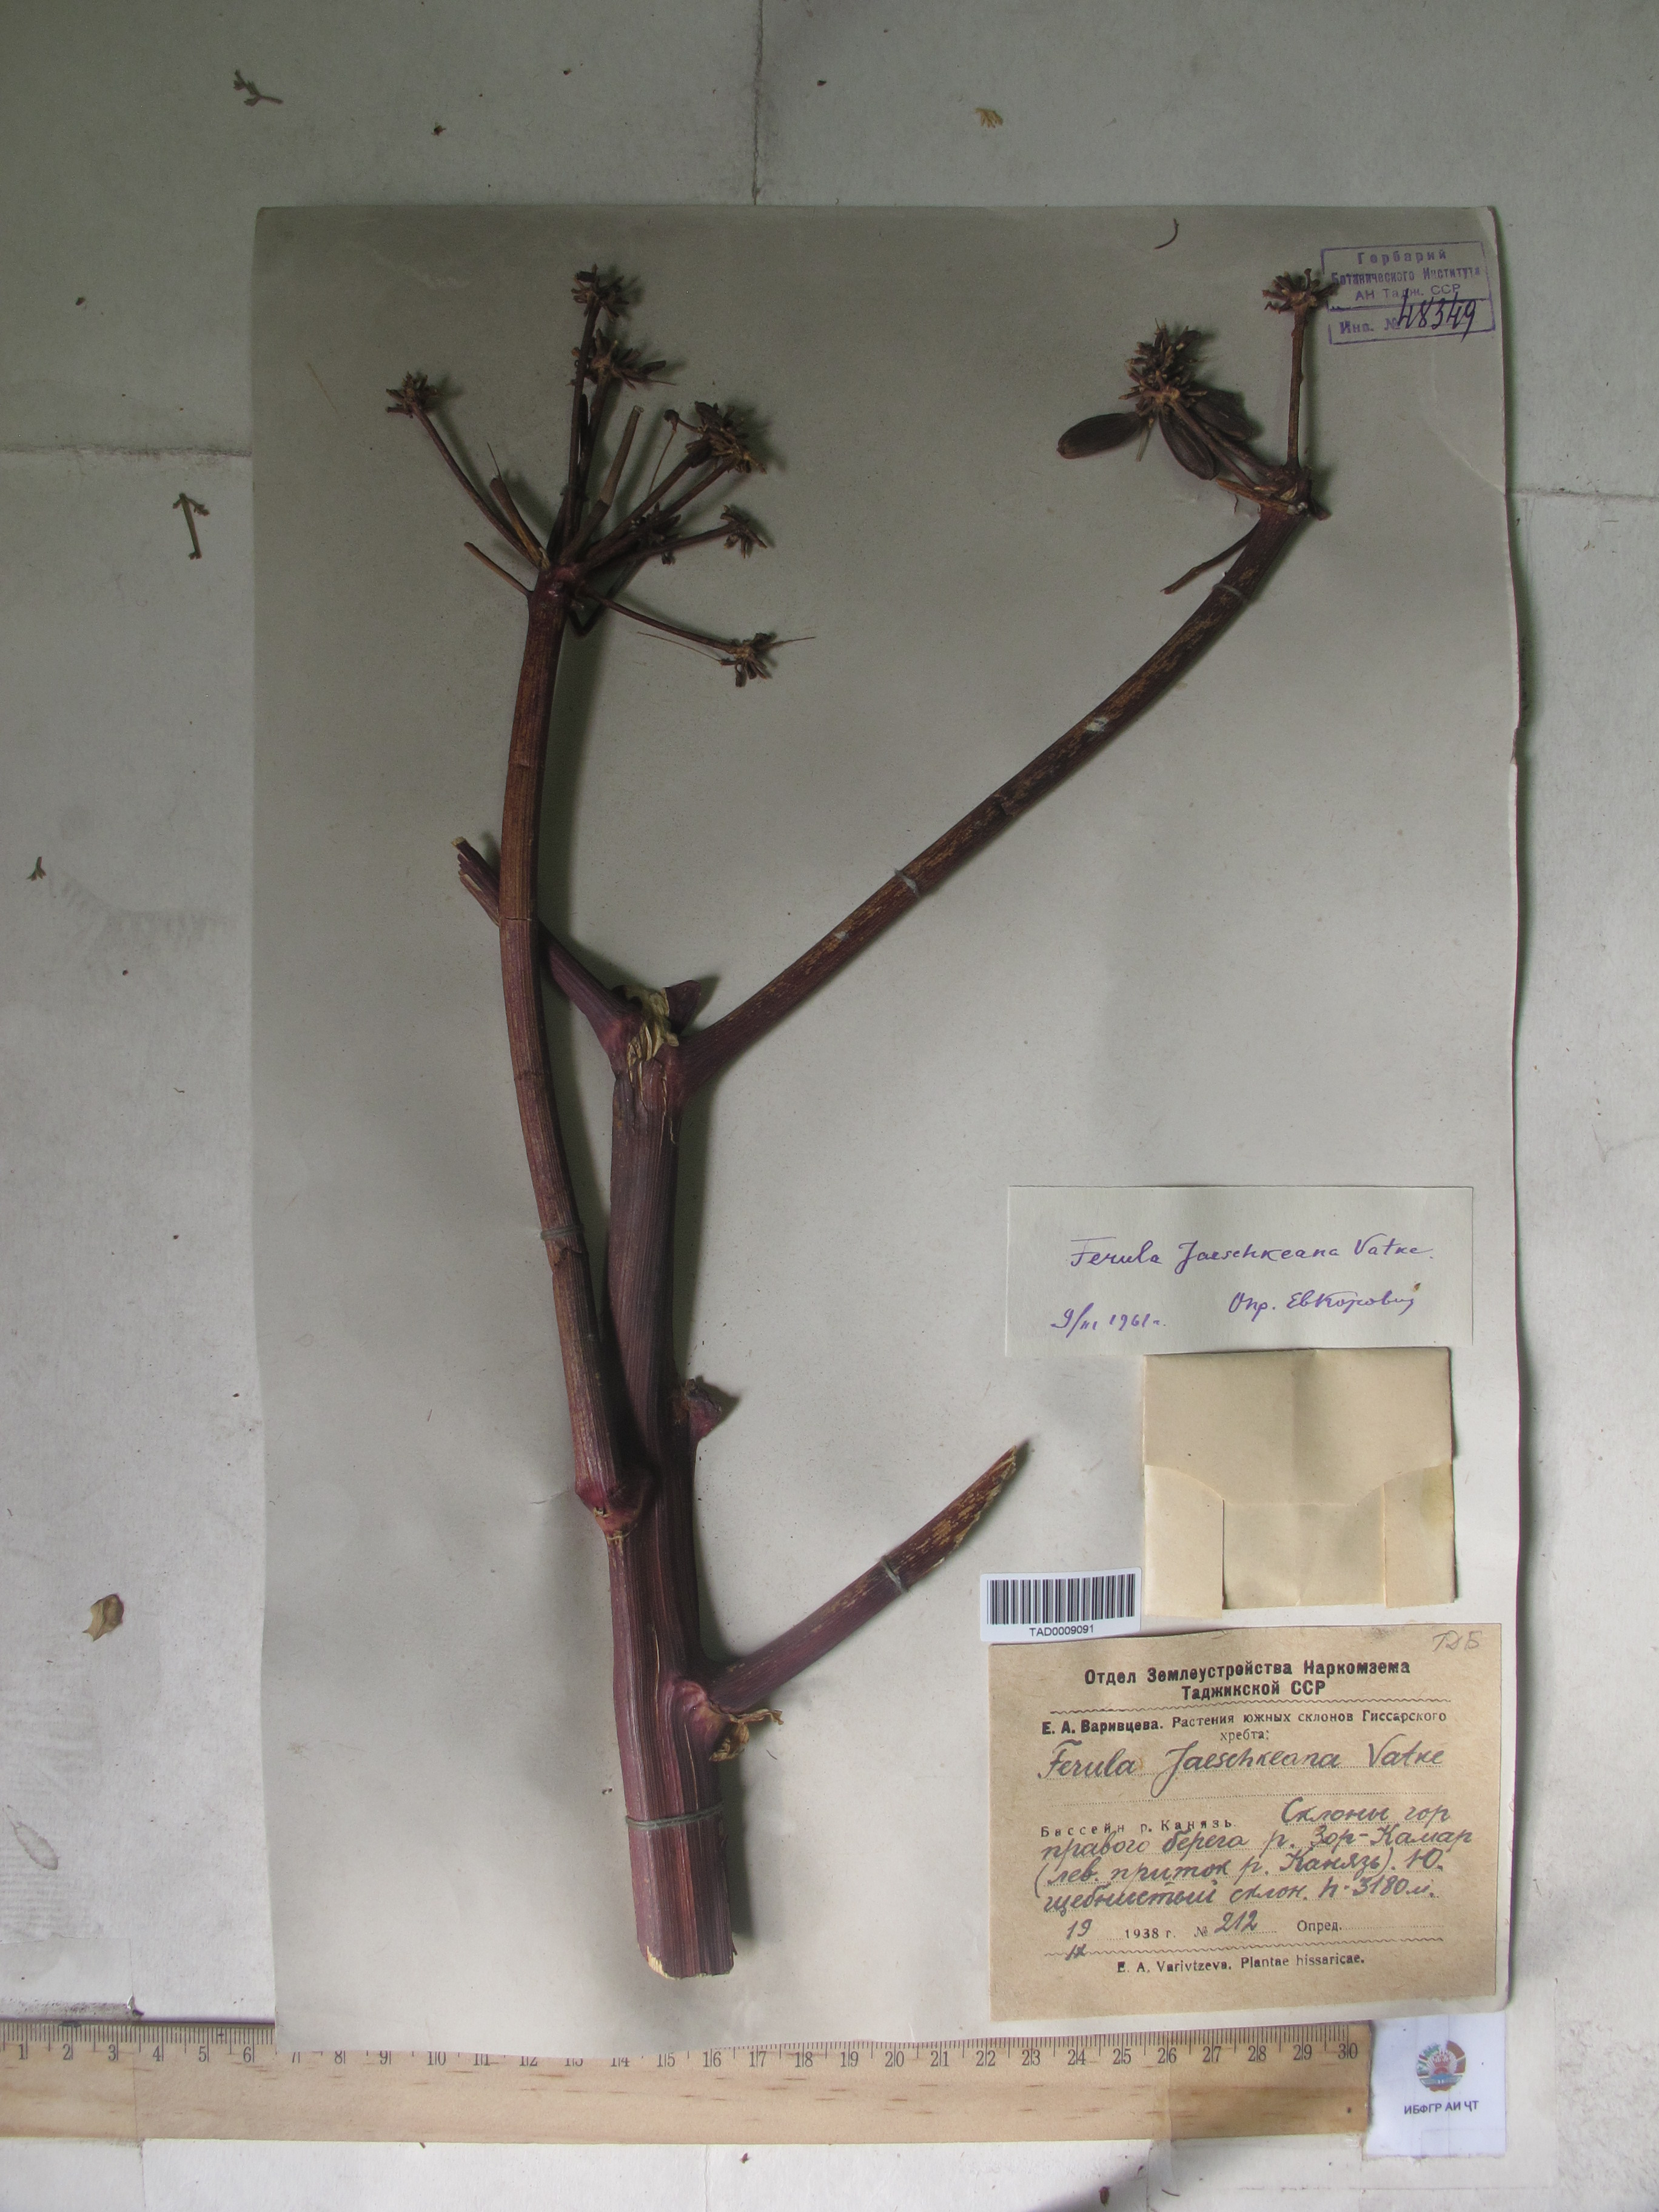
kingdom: Plantae
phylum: Tracheophyta
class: Magnoliopsida
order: Apiales
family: Apiaceae
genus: Ferula
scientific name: Ferula jaeschkeana
